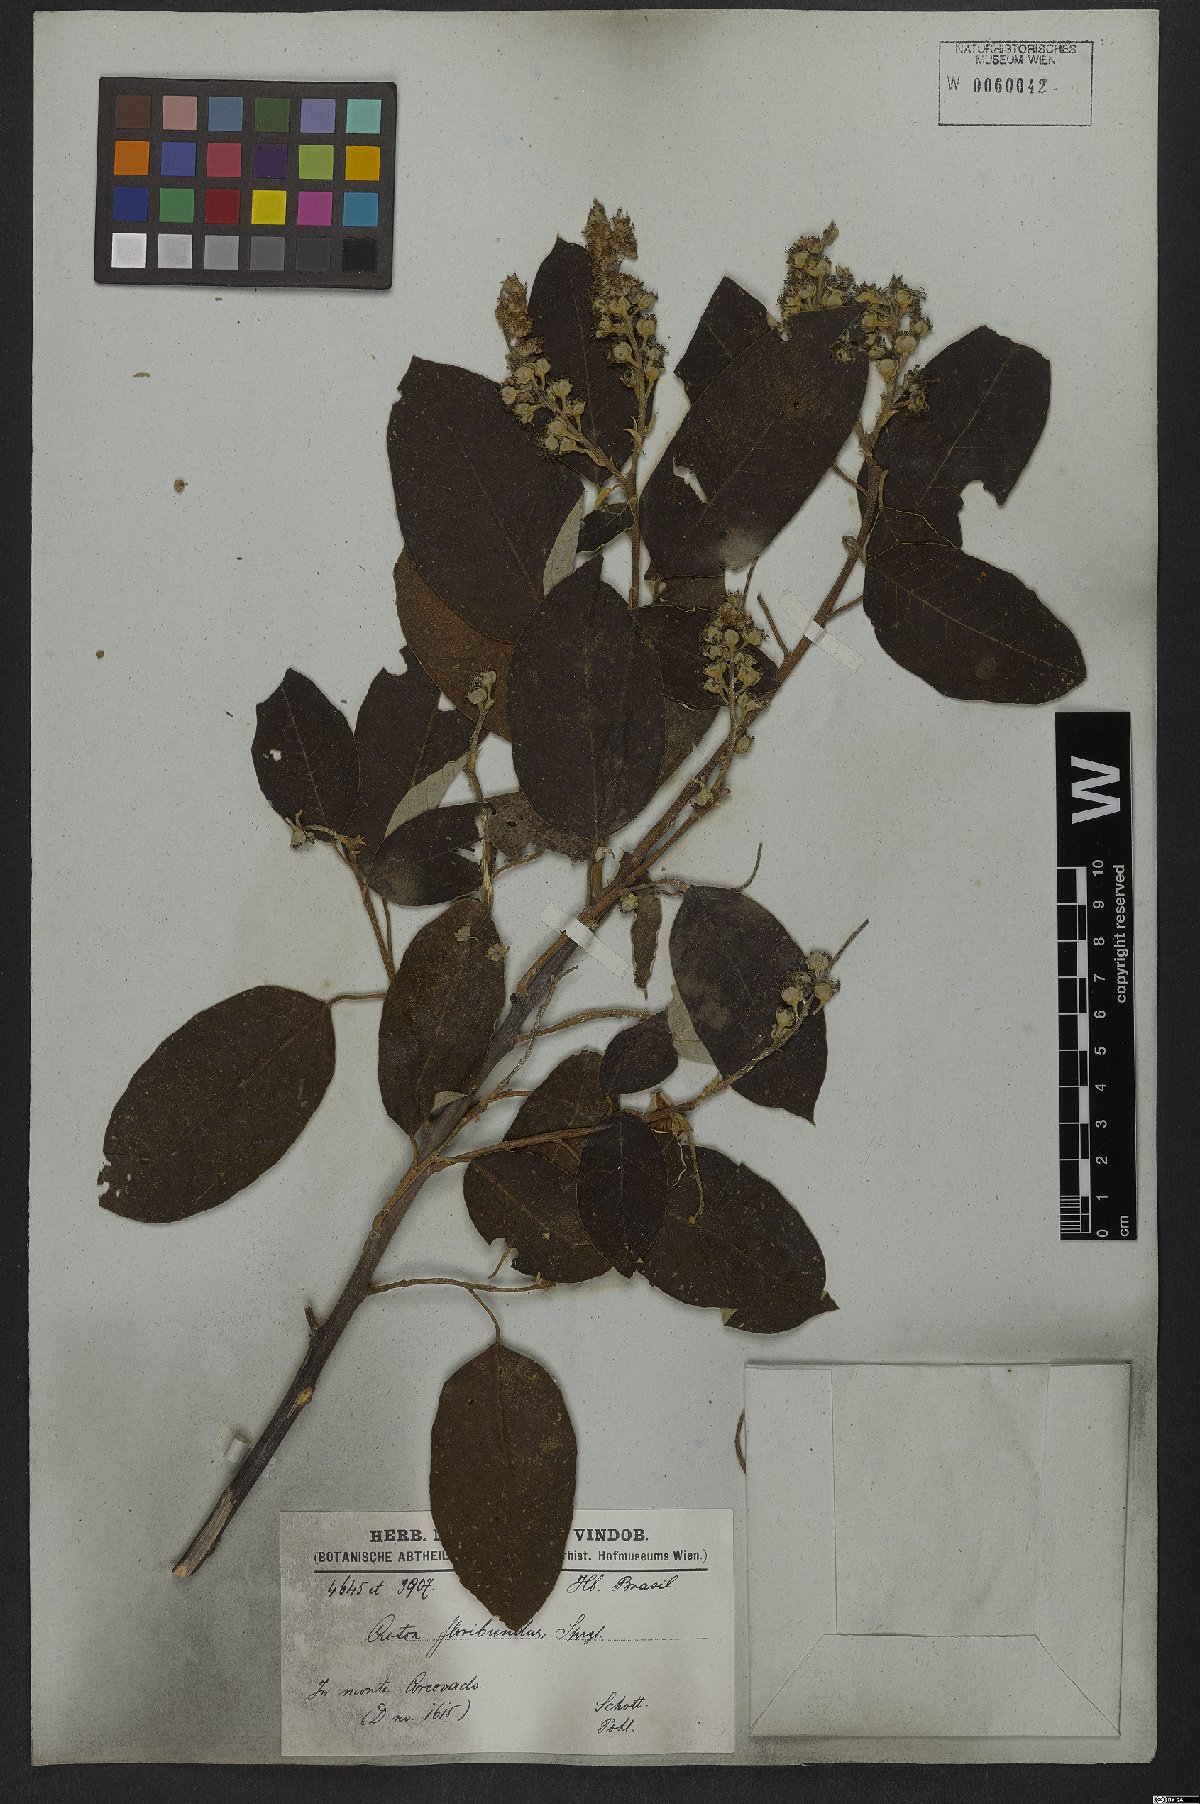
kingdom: Plantae
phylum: Tracheophyta
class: Magnoliopsida
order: Malpighiales
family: Euphorbiaceae
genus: Croton
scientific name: Croton floribundus
